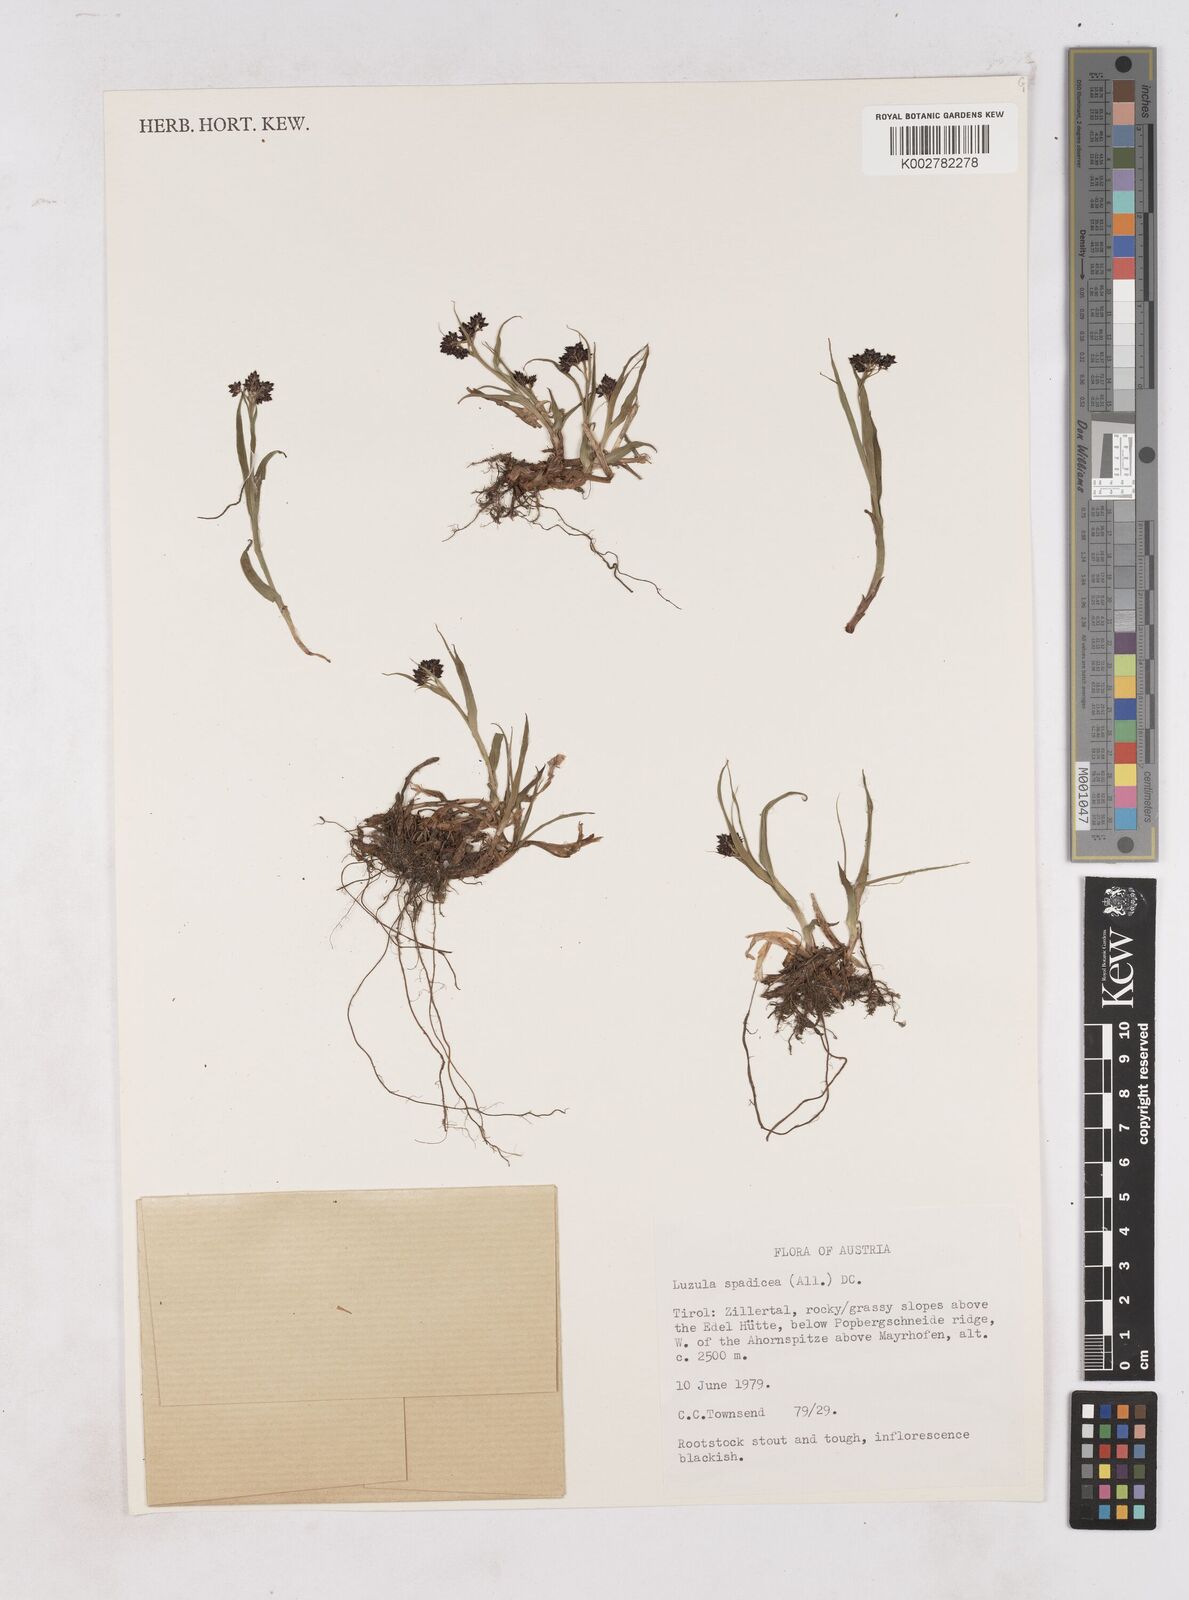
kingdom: Plantae
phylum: Tracheophyta
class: Liliopsida
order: Poales
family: Juncaceae
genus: Luzula
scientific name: Luzula alpinopilosa
